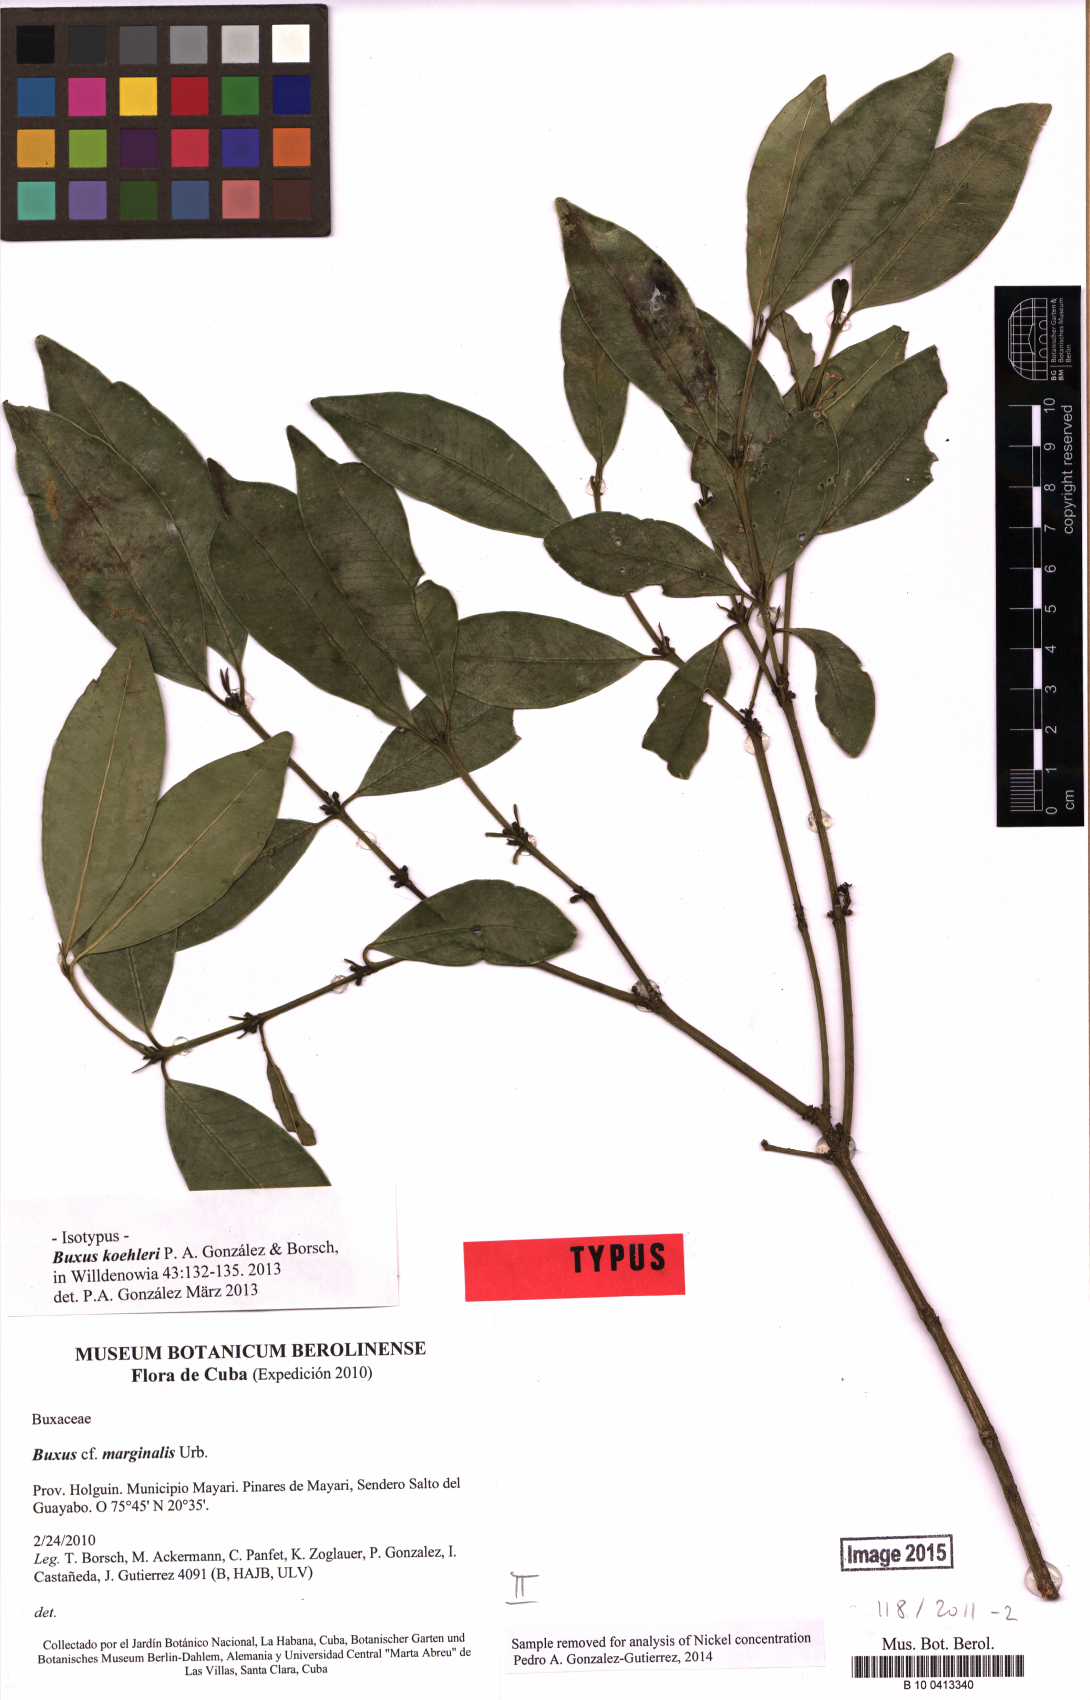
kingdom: Plantae
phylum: Tracheophyta
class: Magnoliopsida
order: Buxales
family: Buxaceae
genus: Buxus
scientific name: Buxus koehleri
